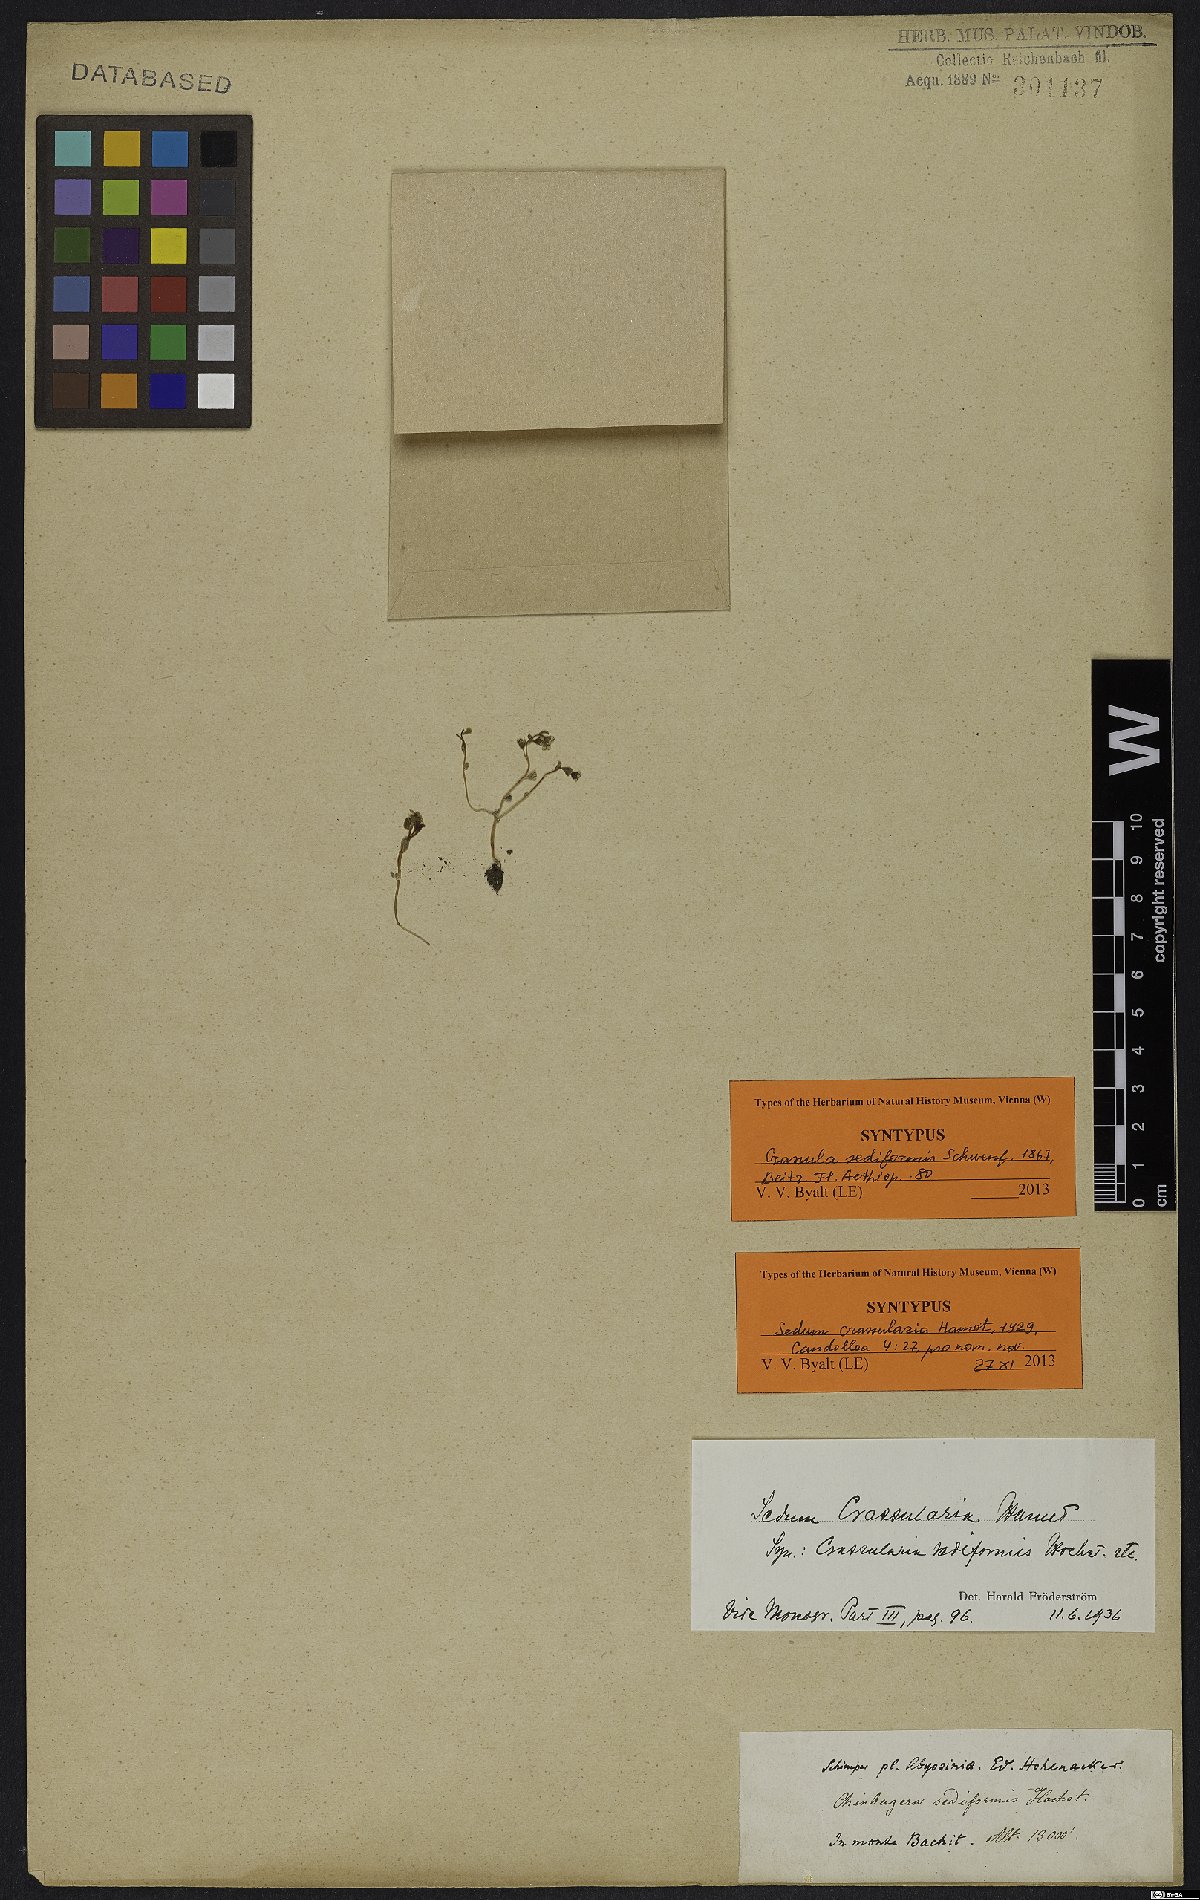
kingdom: Plantae
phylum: Tracheophyta
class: Magnoliopsida
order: Saxifragales
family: Crassulaceae
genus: Sedum
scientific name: Sedum crassularia
